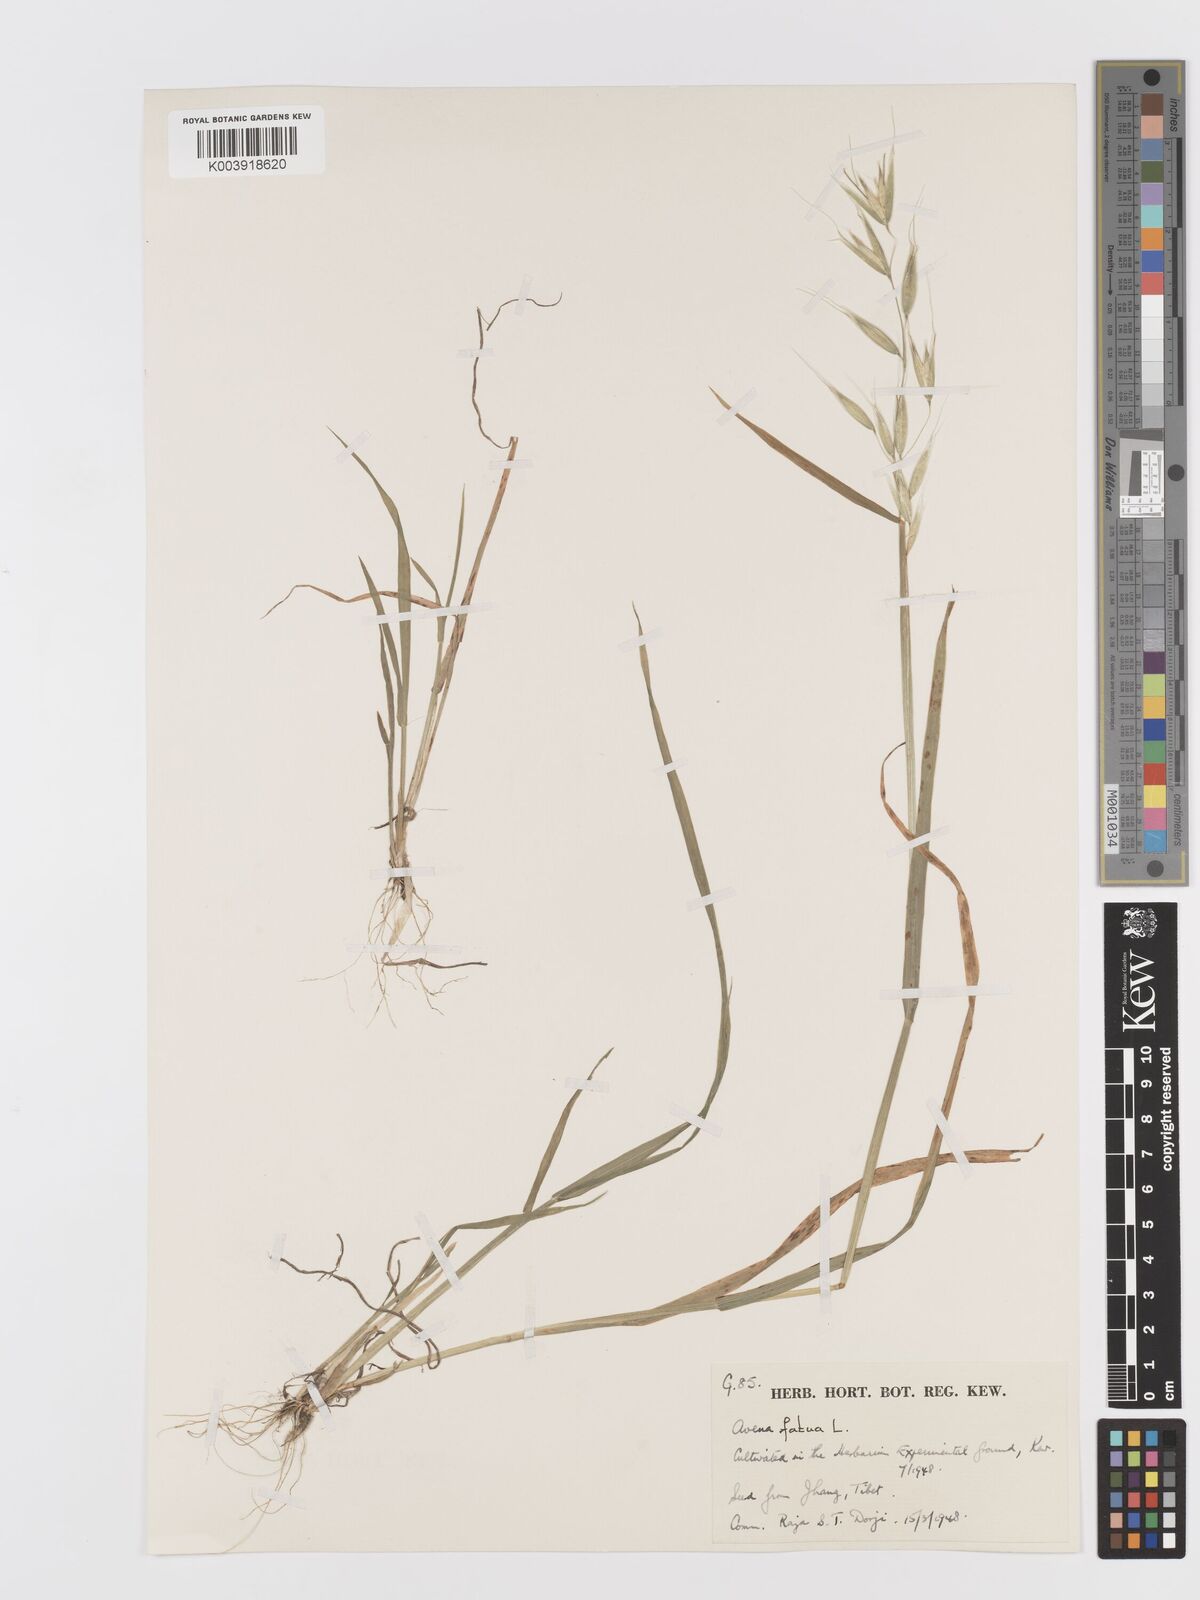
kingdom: Plantae
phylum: Tracheophyta
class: Liliopsida
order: Poales
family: Poaceae
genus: Avena
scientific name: Avena fatua
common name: Wild oat
